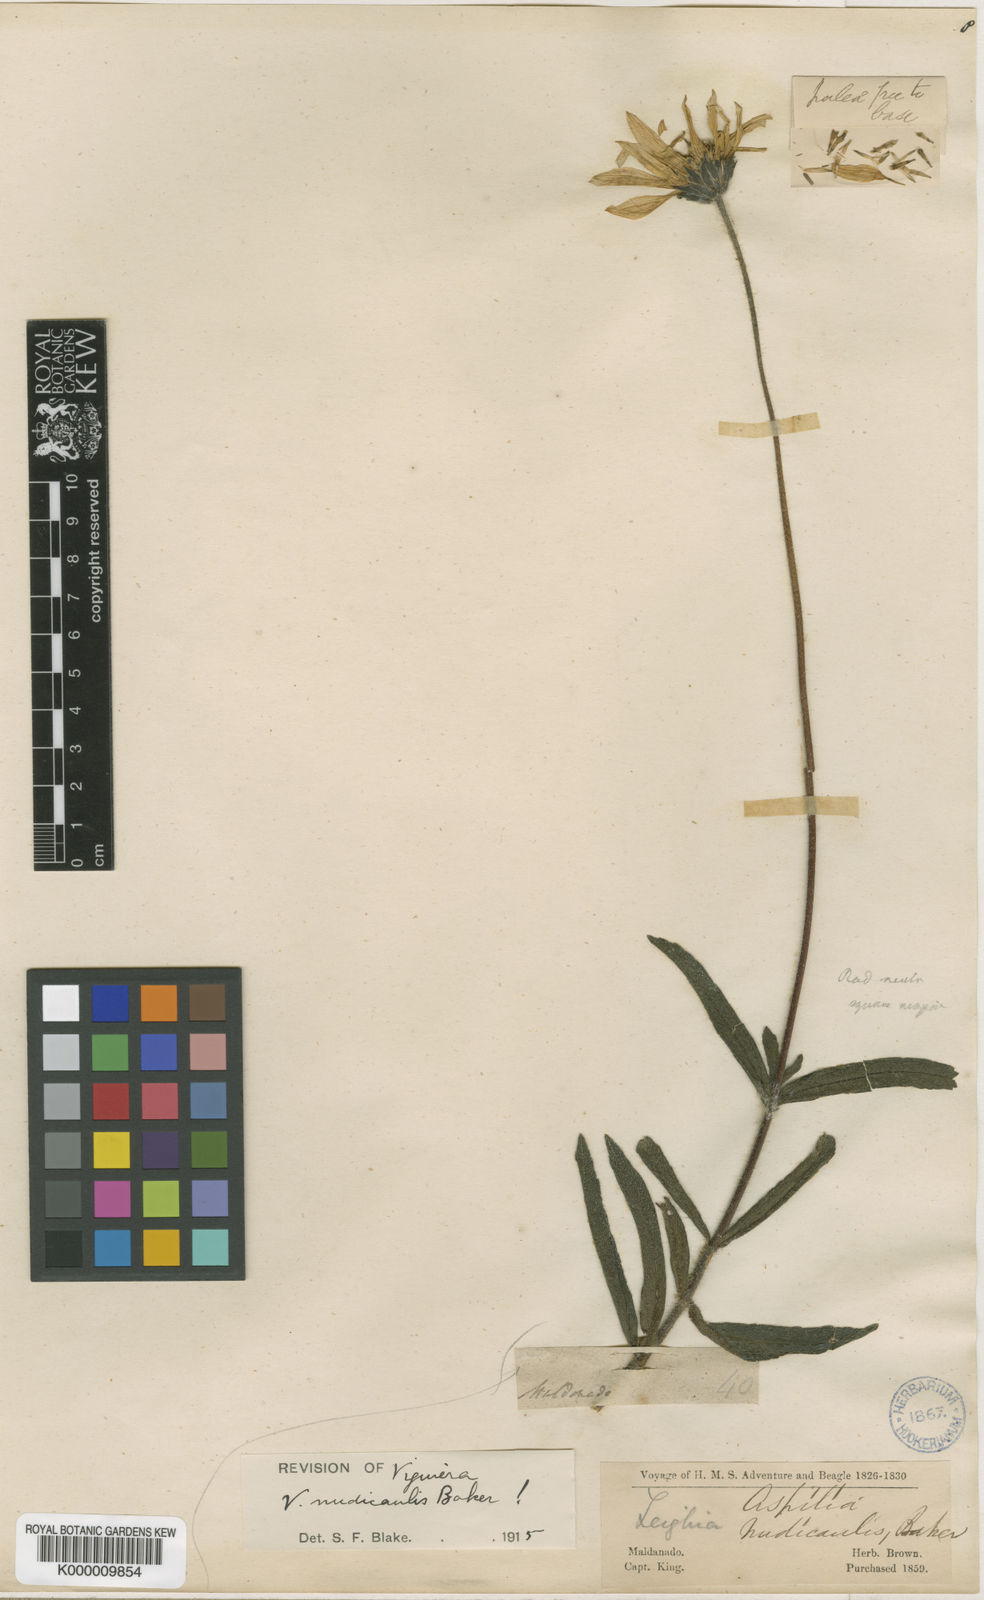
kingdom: Plantae
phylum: Tracheophyta
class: Magnoliopsida
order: Asterales
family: Asteraceae
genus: Aldama
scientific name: Aldama nudicaulis
